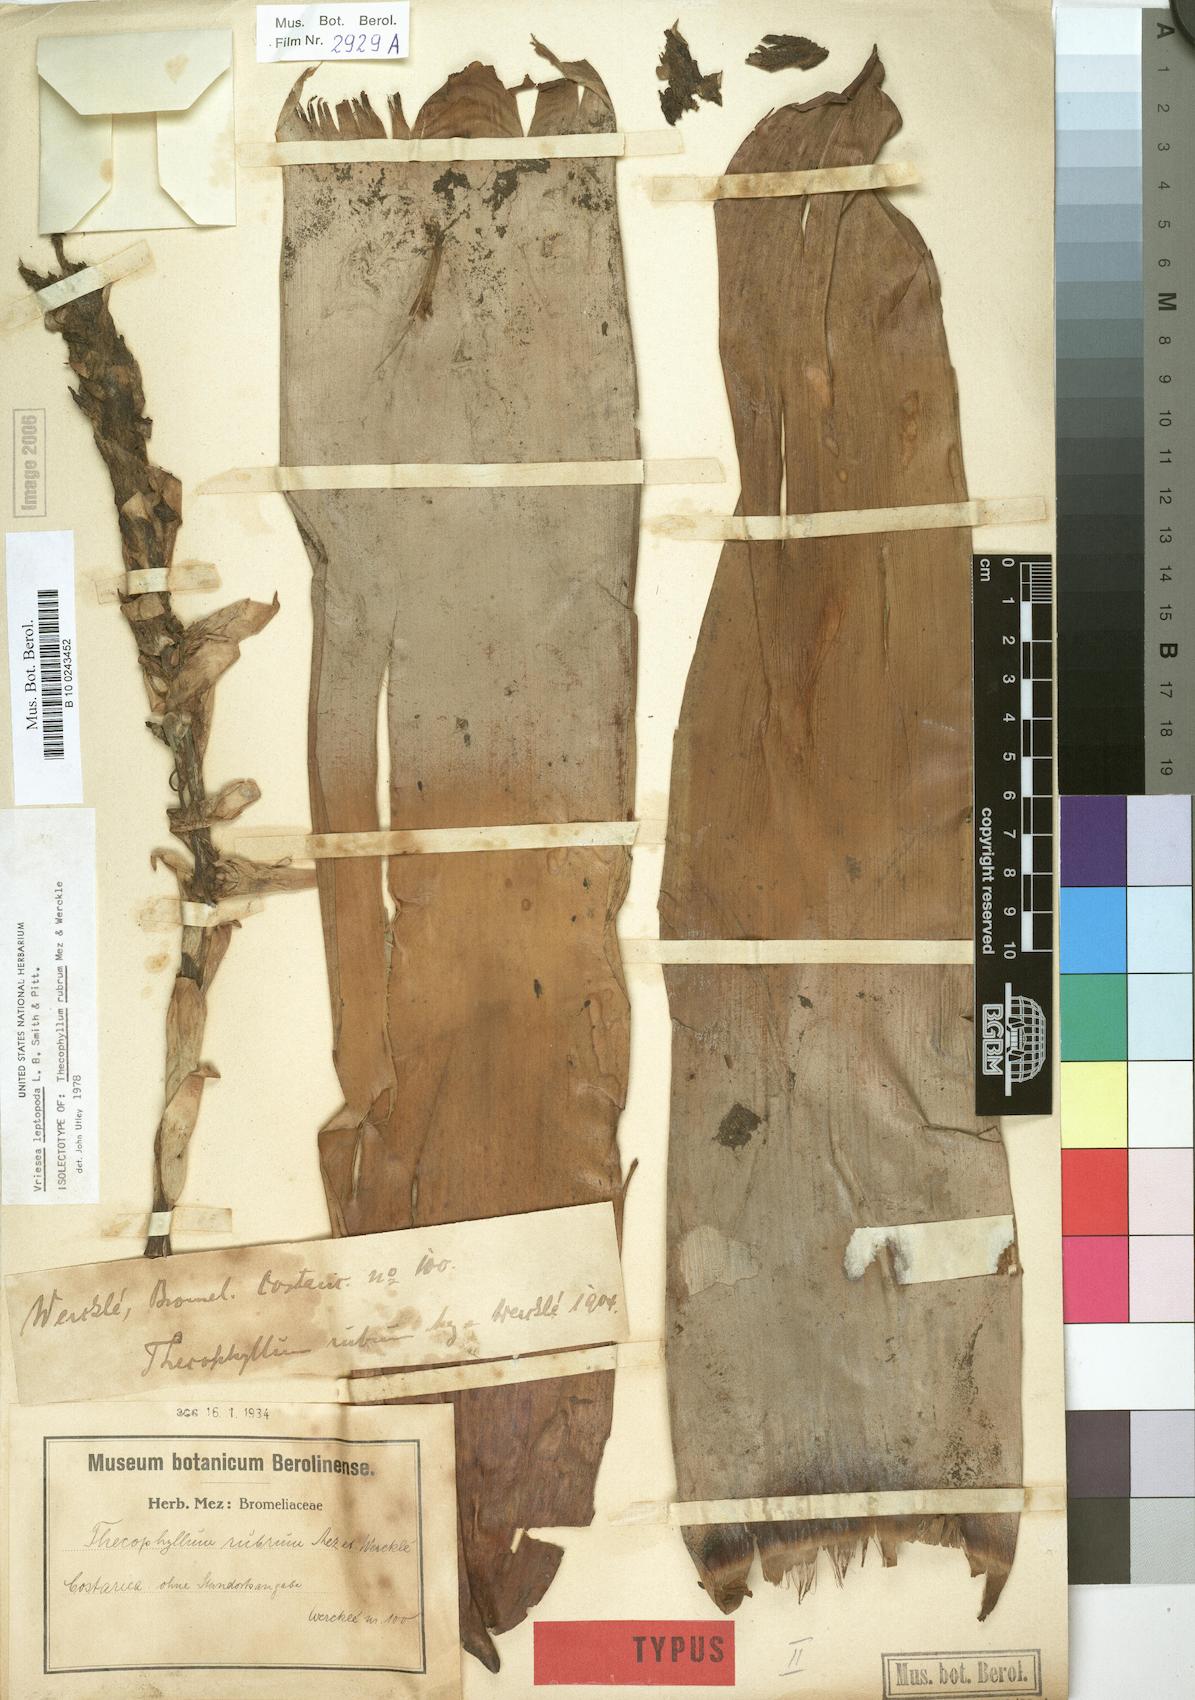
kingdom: Plantae
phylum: Tracheophyta
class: Liliopsida
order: Poales
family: Bromeliaceae
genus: Werauhia
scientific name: Werauhia rubra
